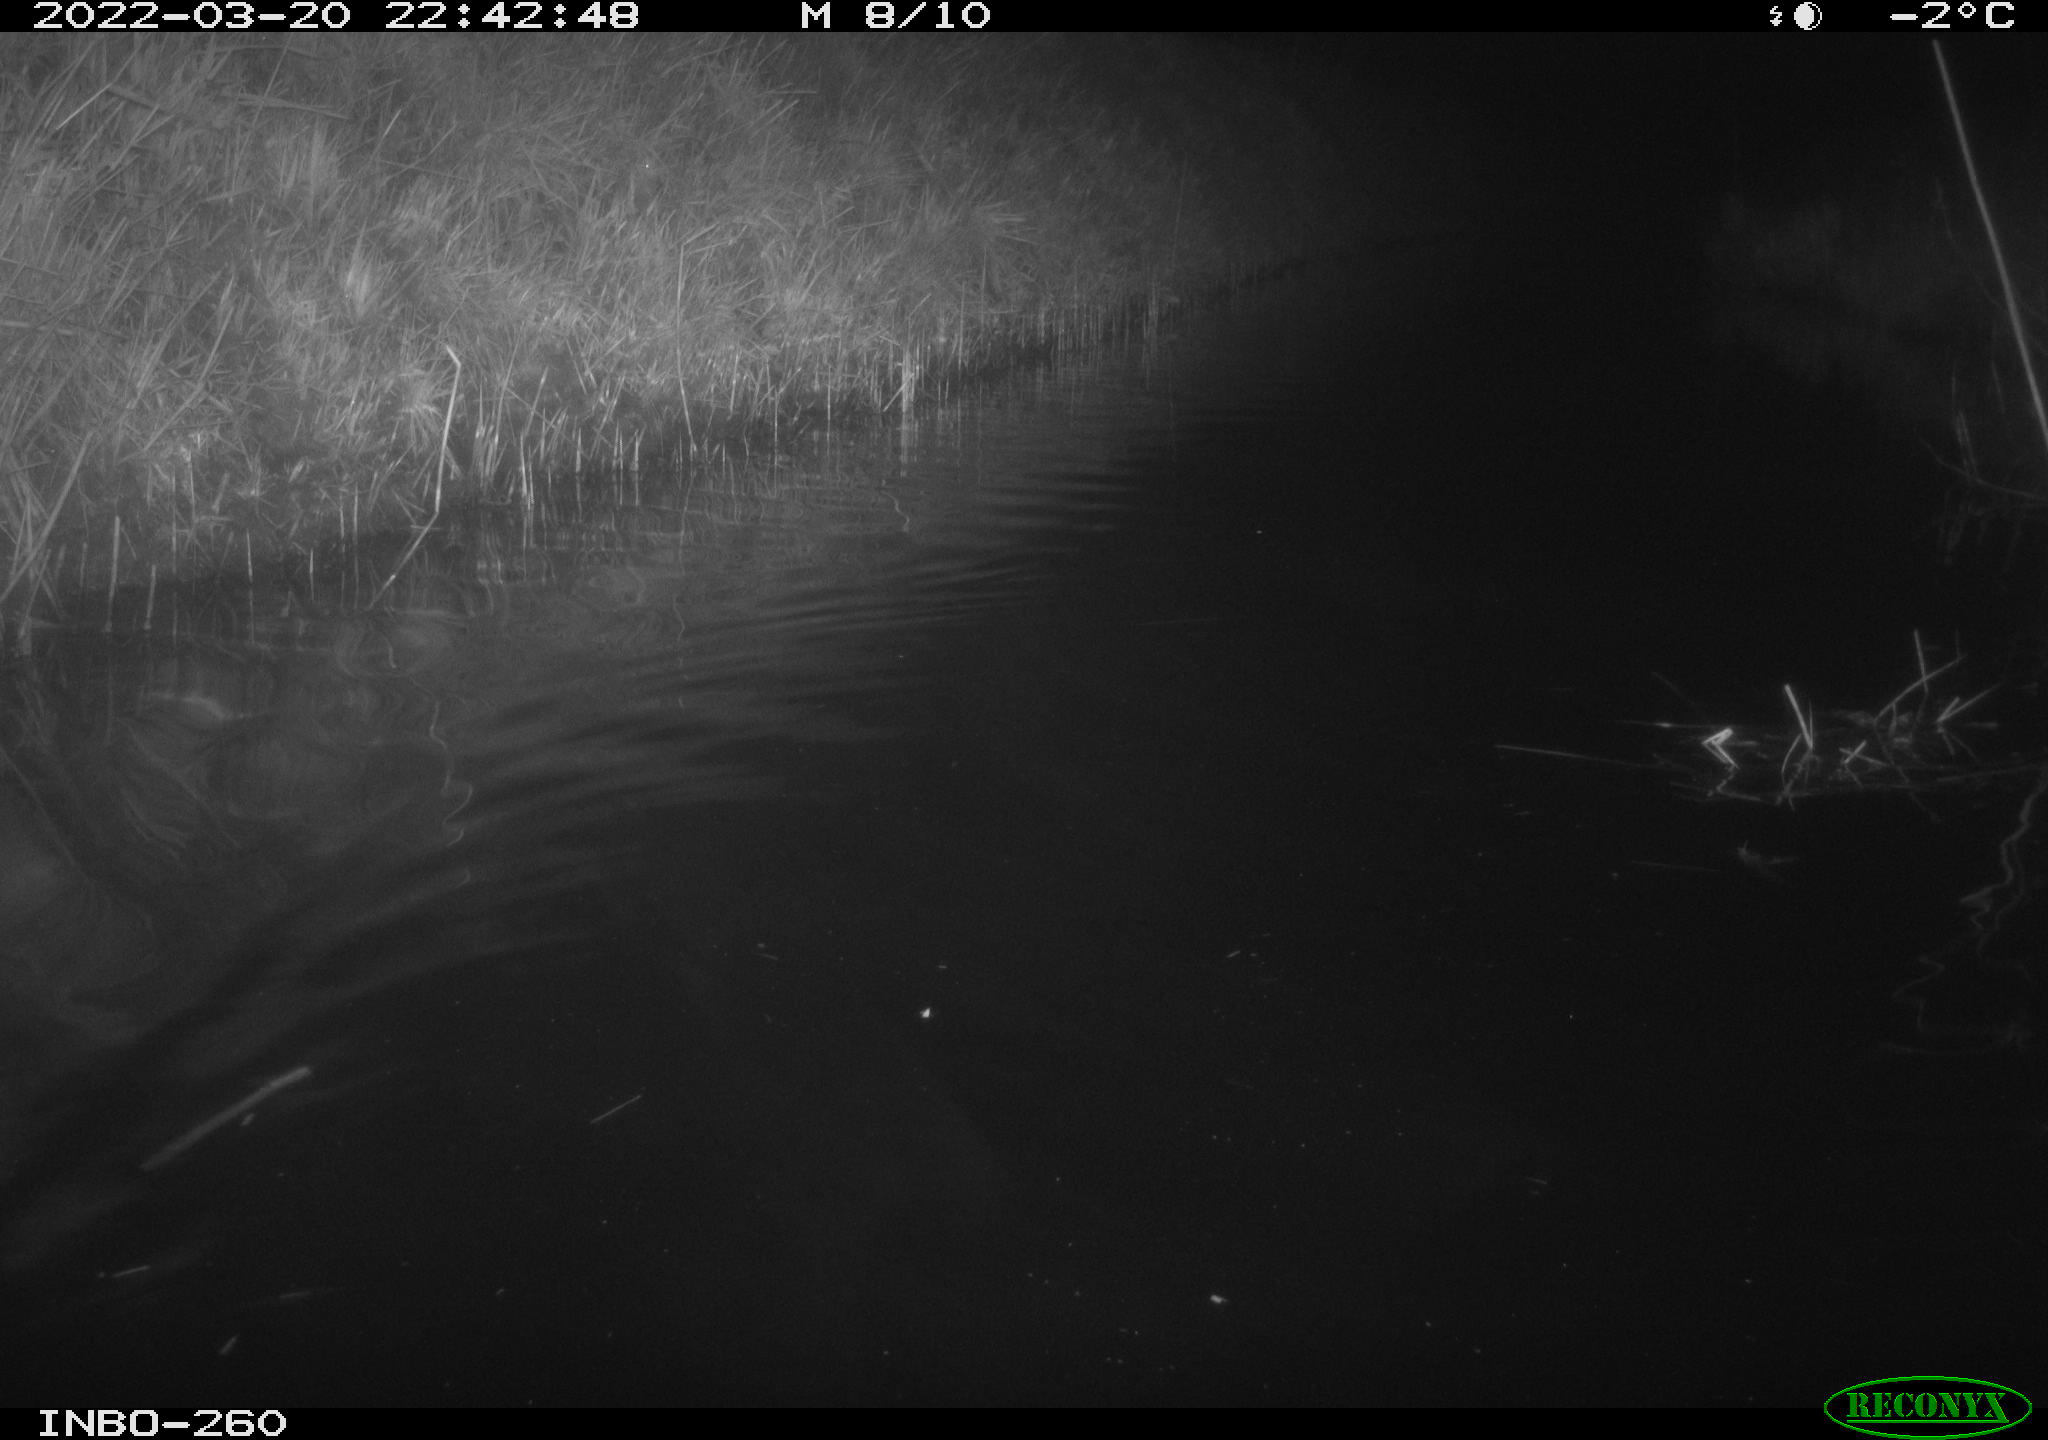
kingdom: Animalia
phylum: Chordata
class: Mammalia
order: Rodentia
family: Cricetidae
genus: Ondatra
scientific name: Ondatra zibethicus
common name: Muskrat
